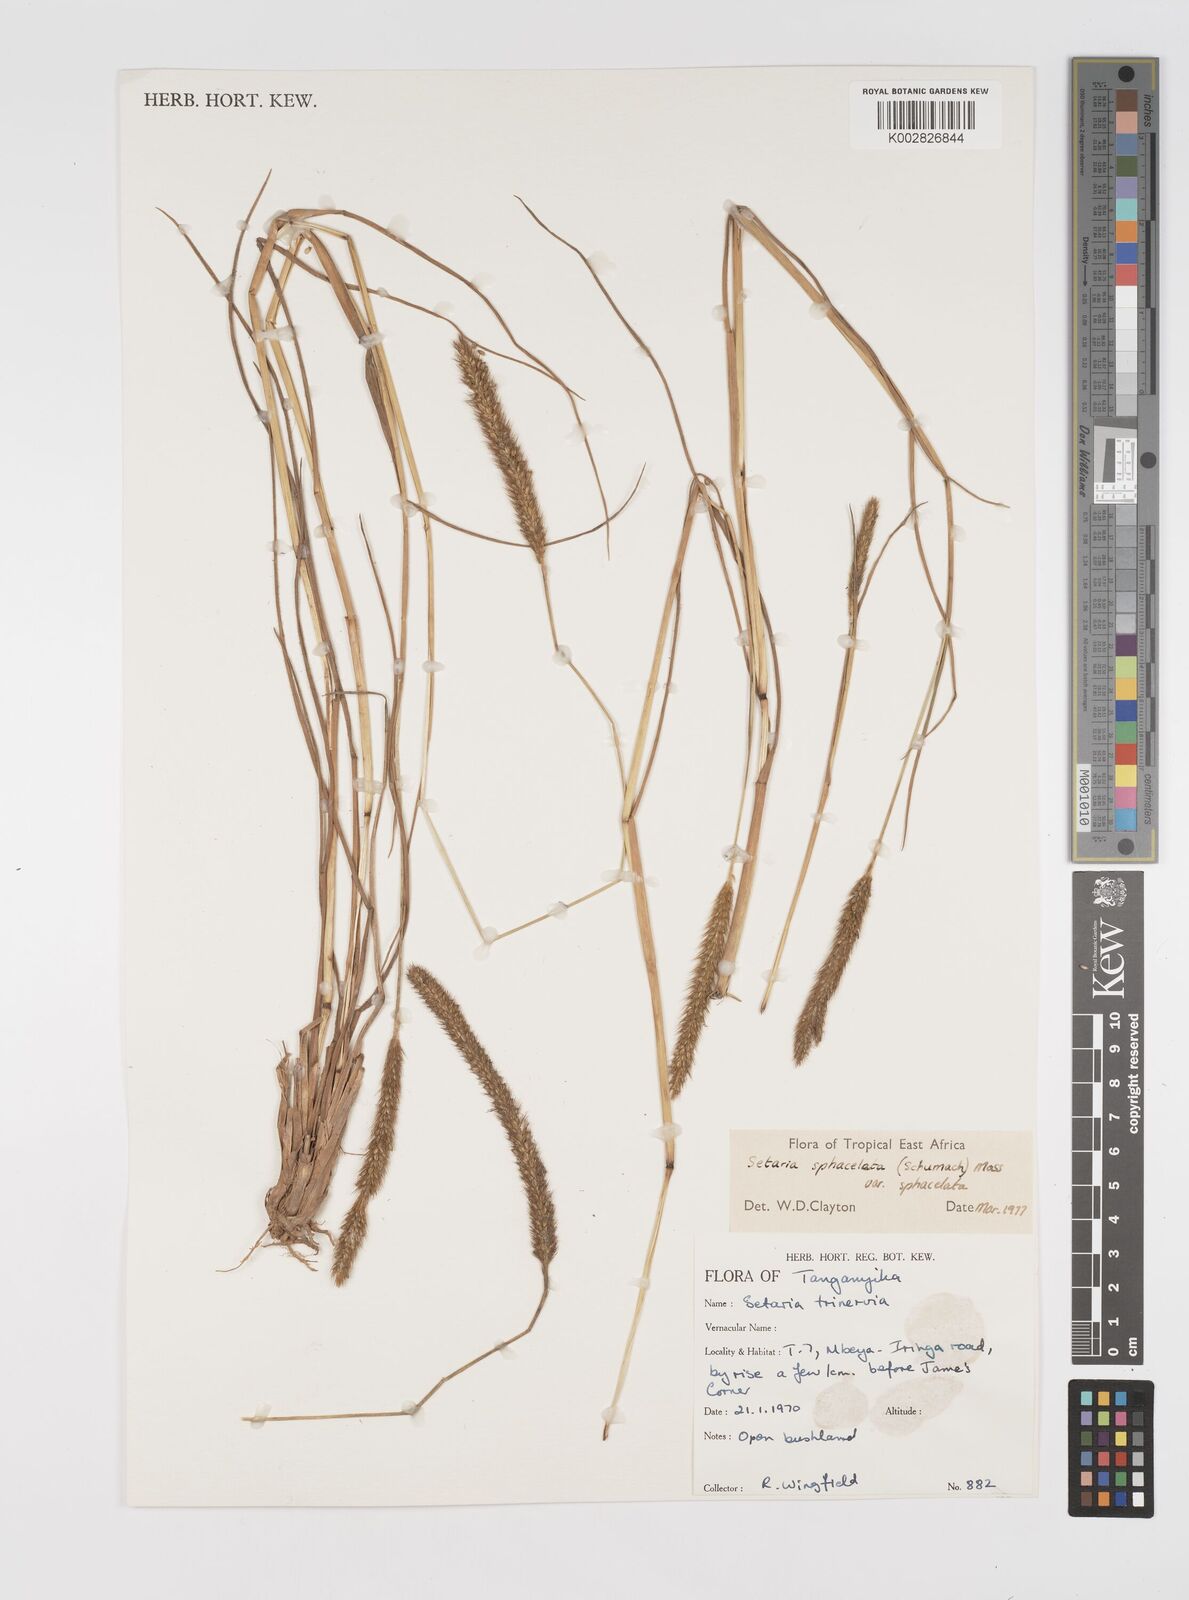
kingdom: Plantae
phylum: Tracheophyta
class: Liliopsida
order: Poales
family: Poaceae
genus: Setaria
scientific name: Setaria sphacelata
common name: African bristlegrass
